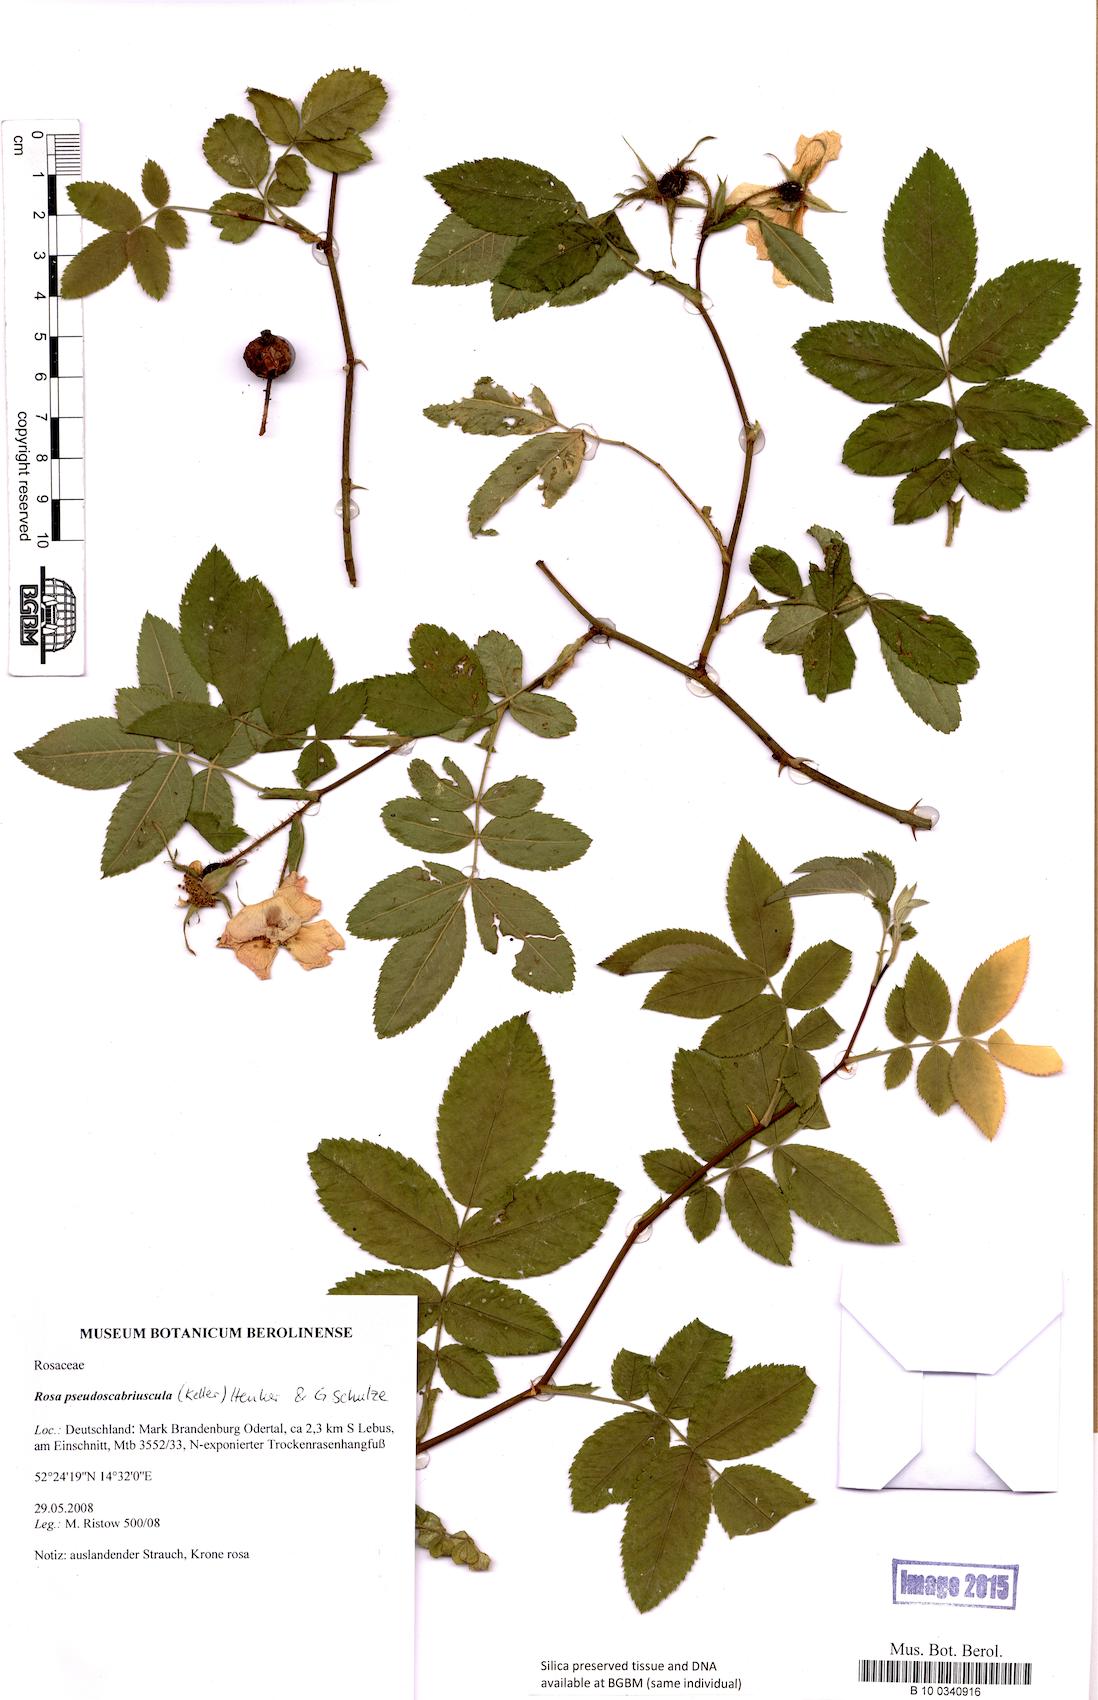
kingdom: Plantae
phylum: Tracheophyta
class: Magnoliopsida
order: Rosales
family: Rosaceae
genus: Rosa
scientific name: Rosa pseudoscabriuscula
